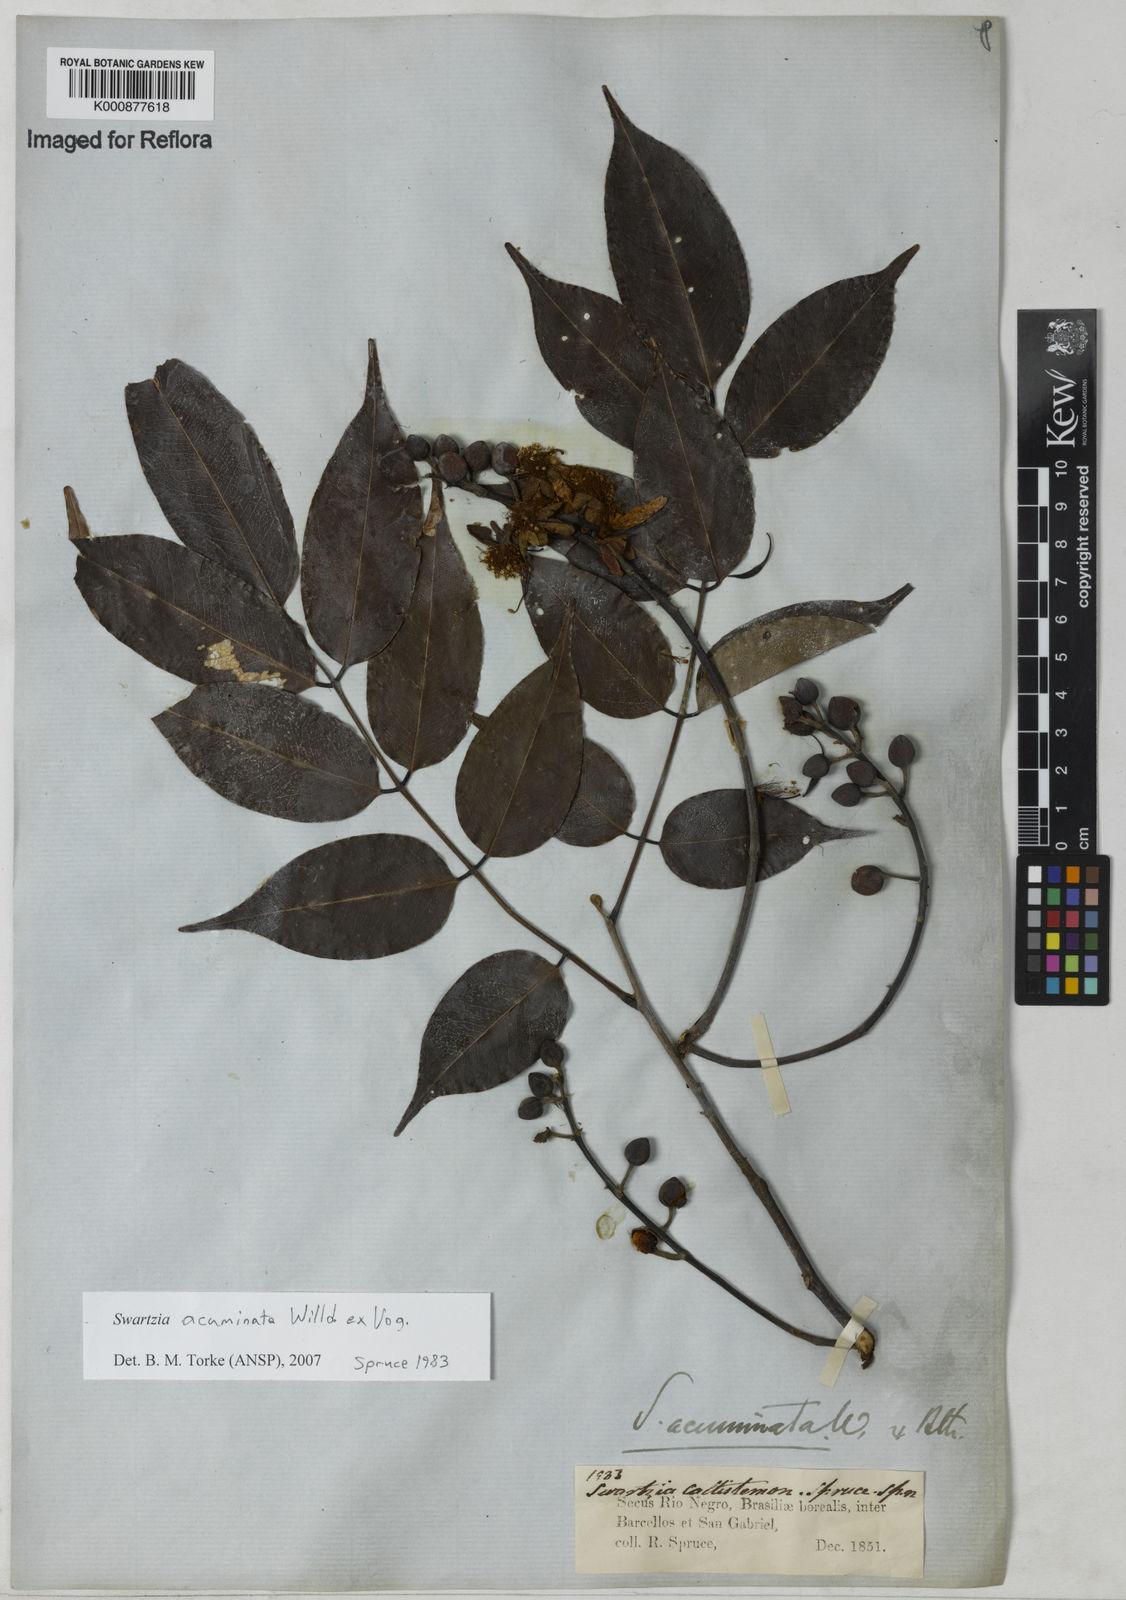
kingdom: Plantae
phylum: Tracheophyta
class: Magnoliopsida
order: Fabales
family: Fabaceae
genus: Swartzia
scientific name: Swartzia acuminata
